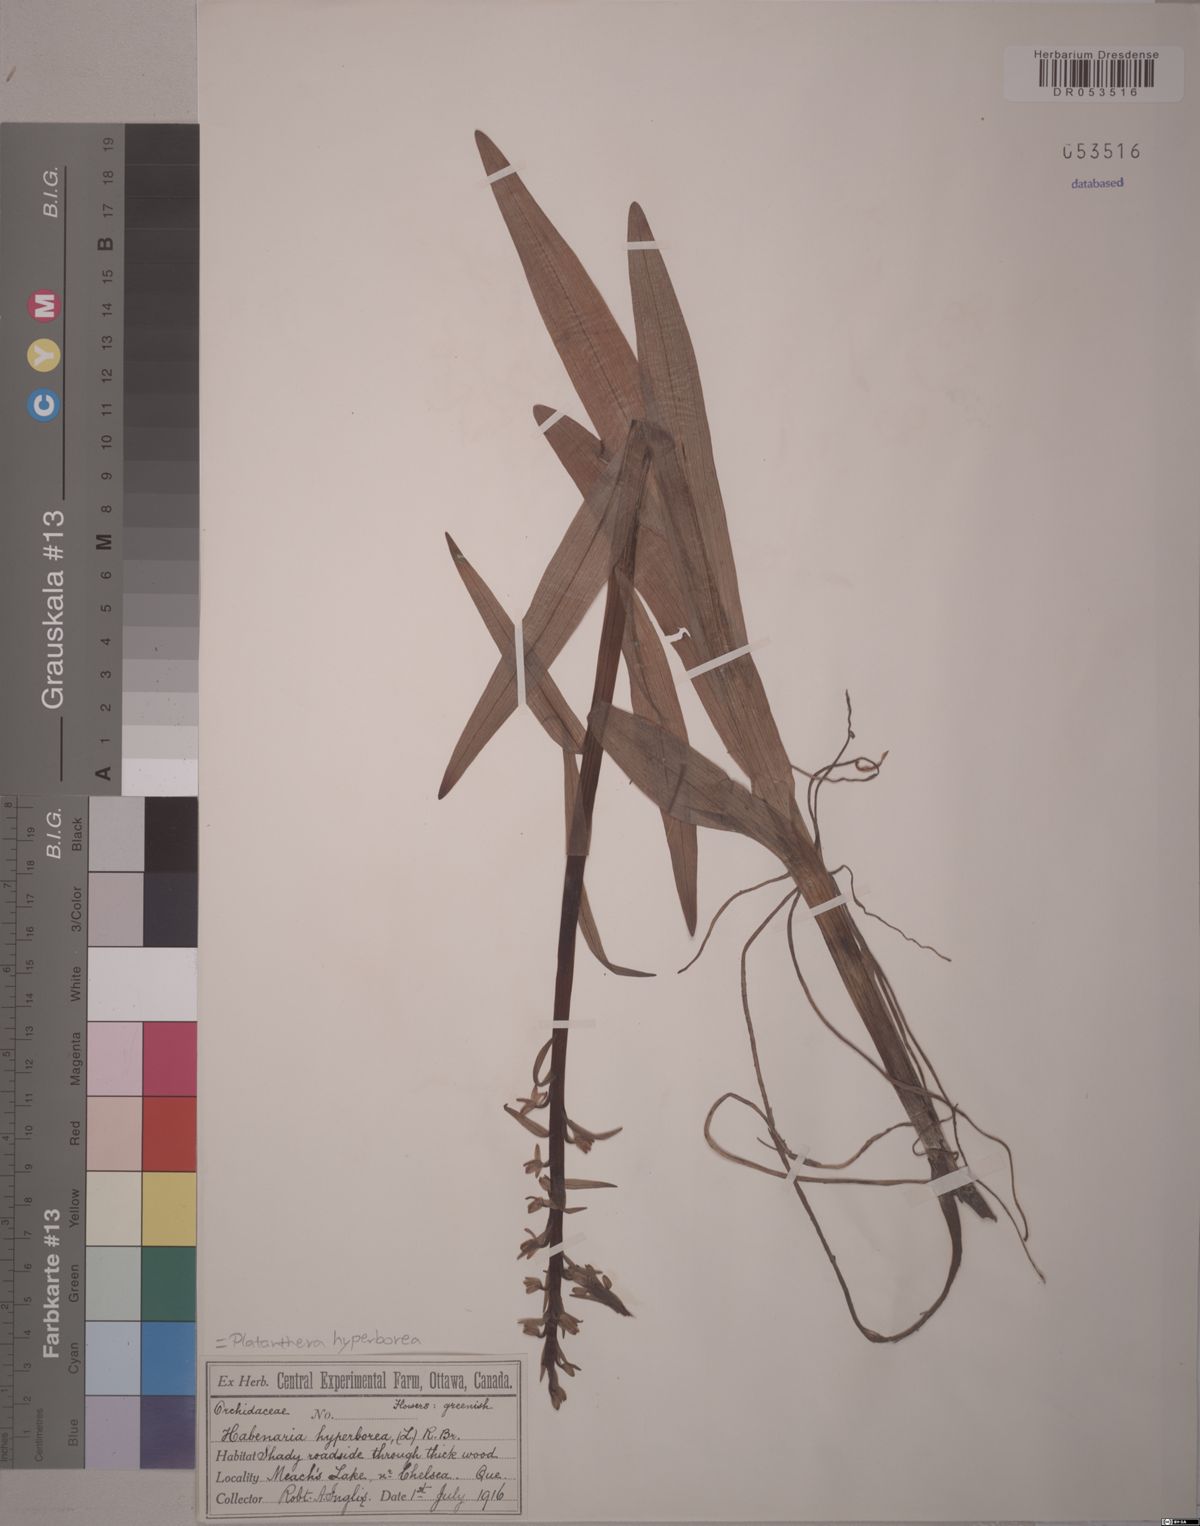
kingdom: Plantae
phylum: Tracheophyta
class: Liliopsida
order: Asparagales
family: Orchidaceae
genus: Platanthera
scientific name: Platanthera hyperborea
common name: Northern green orchid
